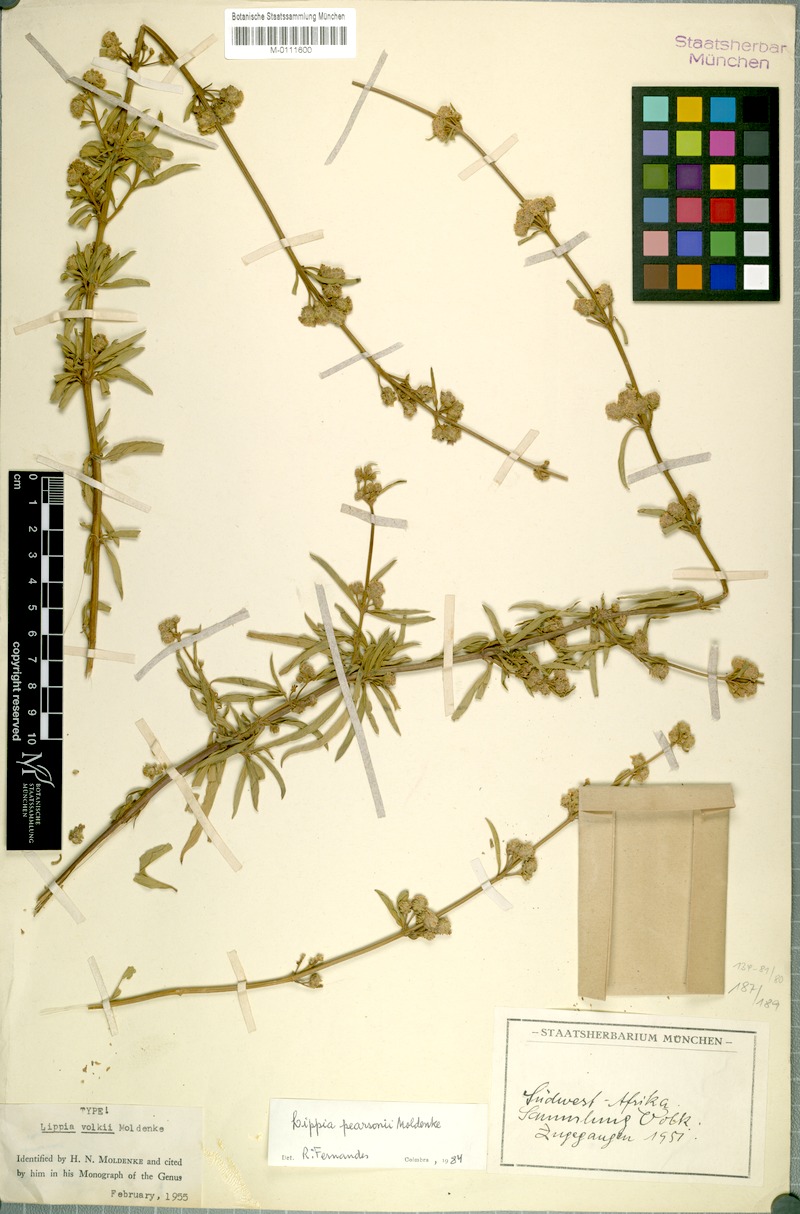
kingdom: Plantae
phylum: Tracheophyta
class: Magnoliopsida
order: Lamiales
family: Verbenaceae
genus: Lippia
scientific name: Lippia pearsonii
